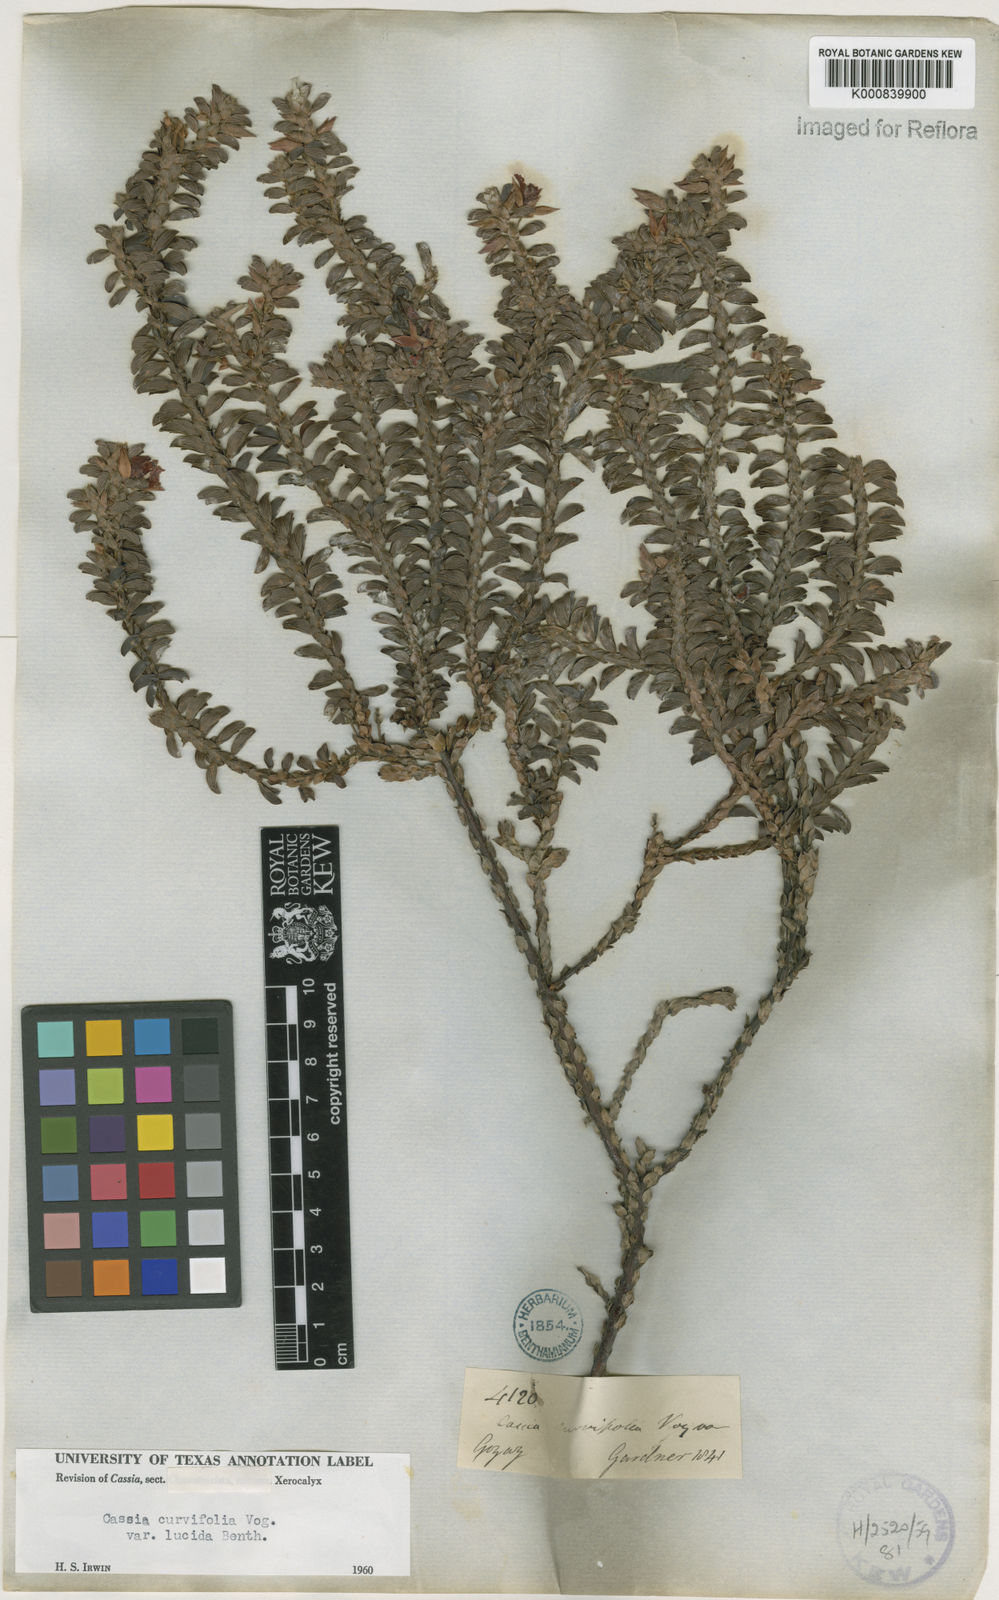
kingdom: Plantae
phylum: Tracheophyta
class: Magnoliopsida
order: Fabales
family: Fabaceae
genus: Chamaecrista
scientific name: Chamaecrista ramosa
